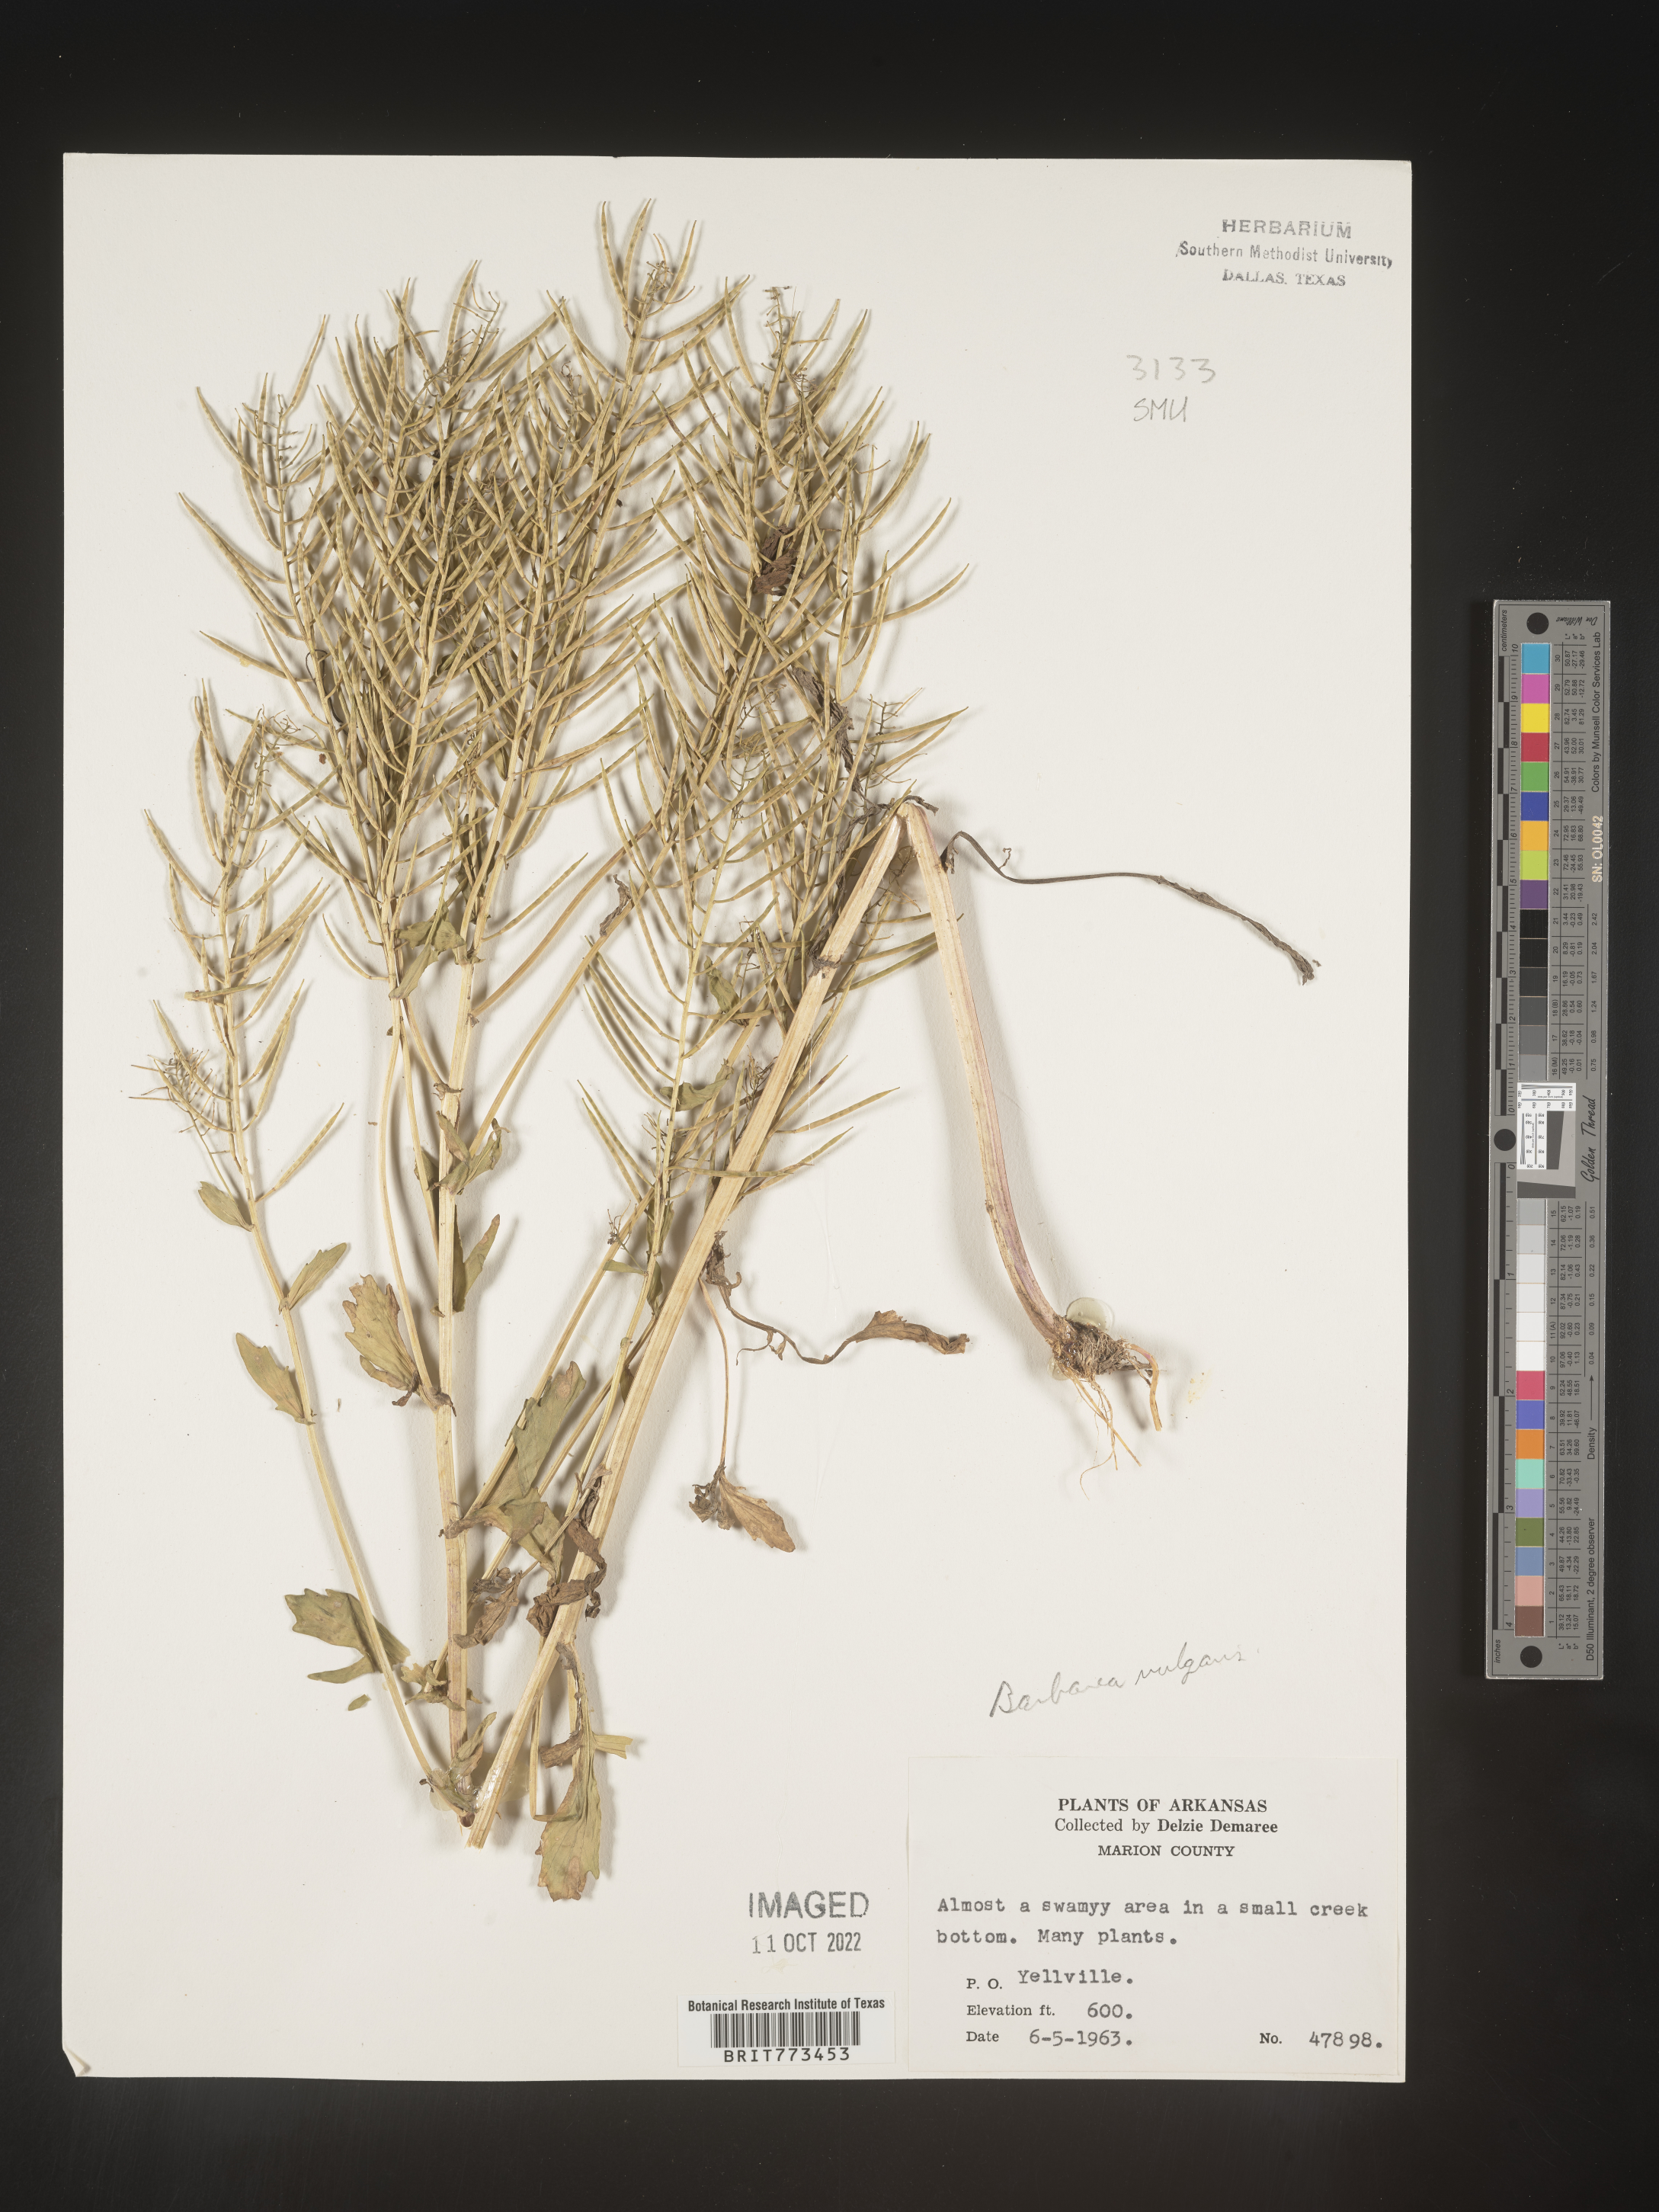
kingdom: Plantae
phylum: Tracheophyta
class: Magnoliopsida
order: Brassicales
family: Brassicaceae
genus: Cardamine
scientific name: Cardamine
